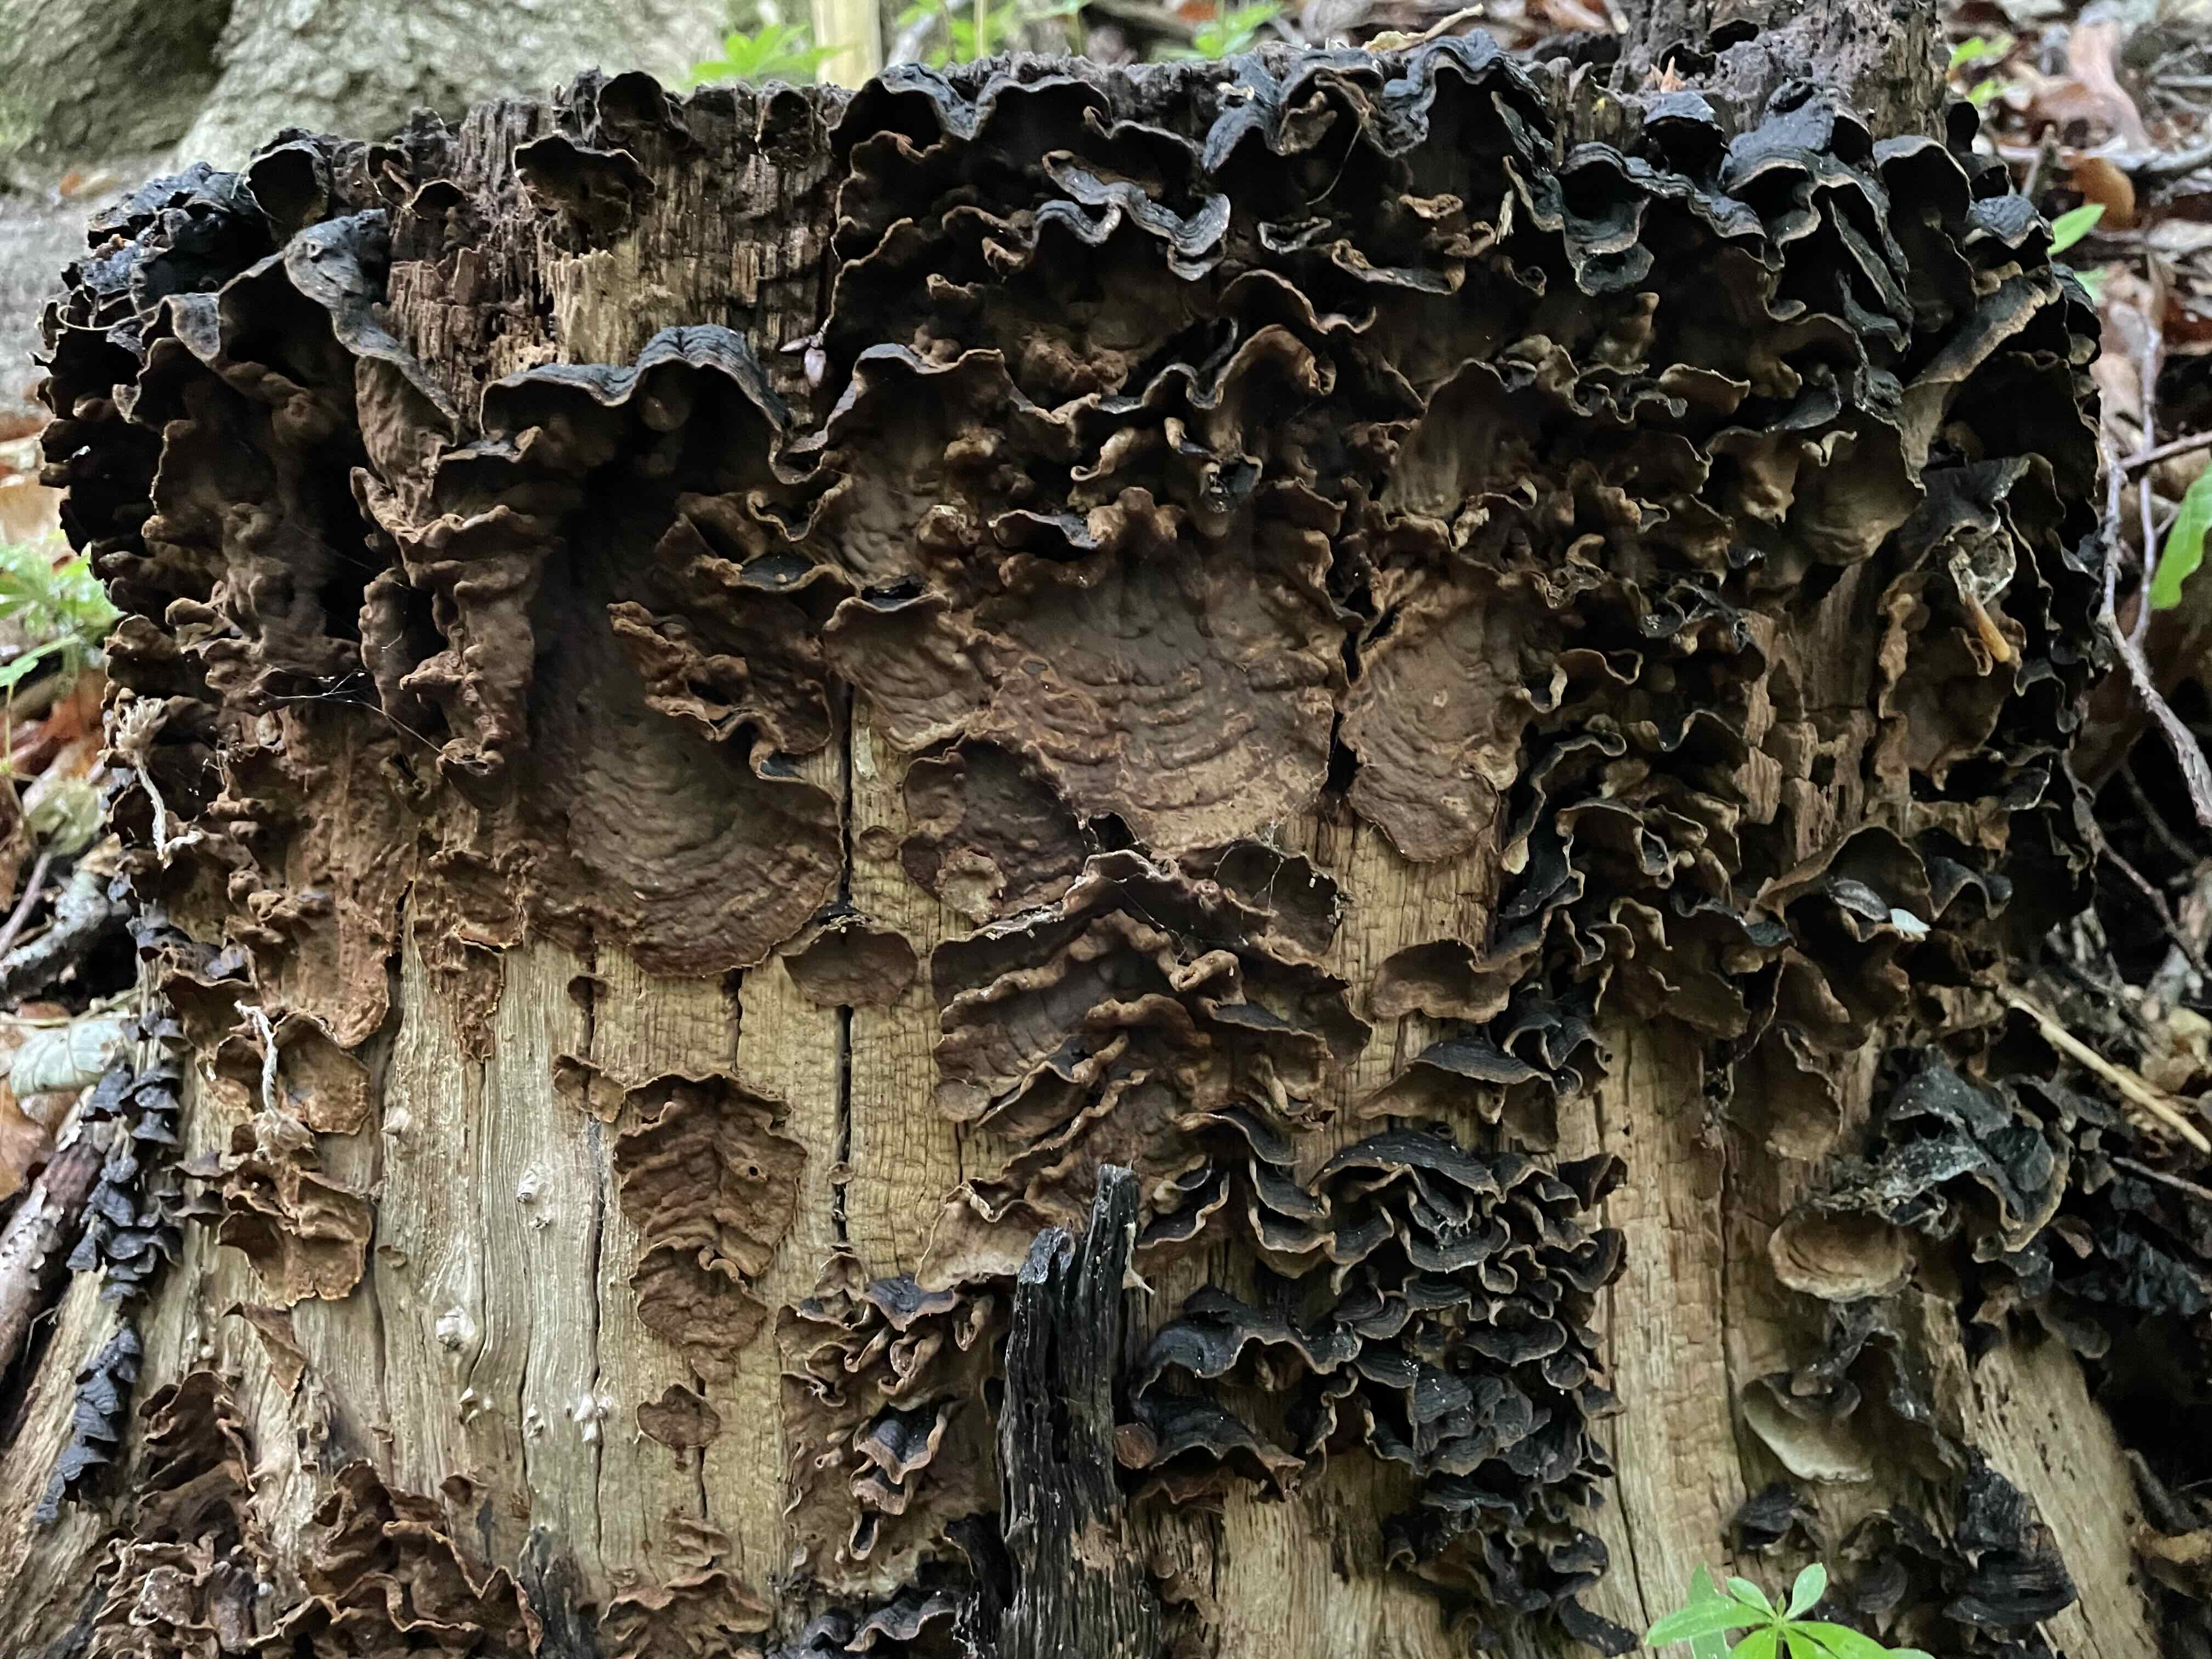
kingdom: Fungi
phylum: Basidiomycota
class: Agaricomycetes
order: Hymenochaetales
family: Hymenochaetaceae
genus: Hymenochaete
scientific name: Hymenochaete rubiginosa
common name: stiv ruslædersvamp
